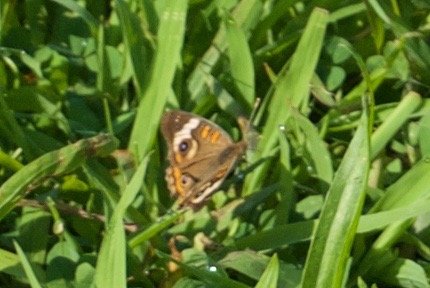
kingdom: Animalia
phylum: Arthropoda
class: Insecta
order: Lepidoptera
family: Nymphalidae
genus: Junonia
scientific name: Junonia coenia
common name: Common Buckeye
